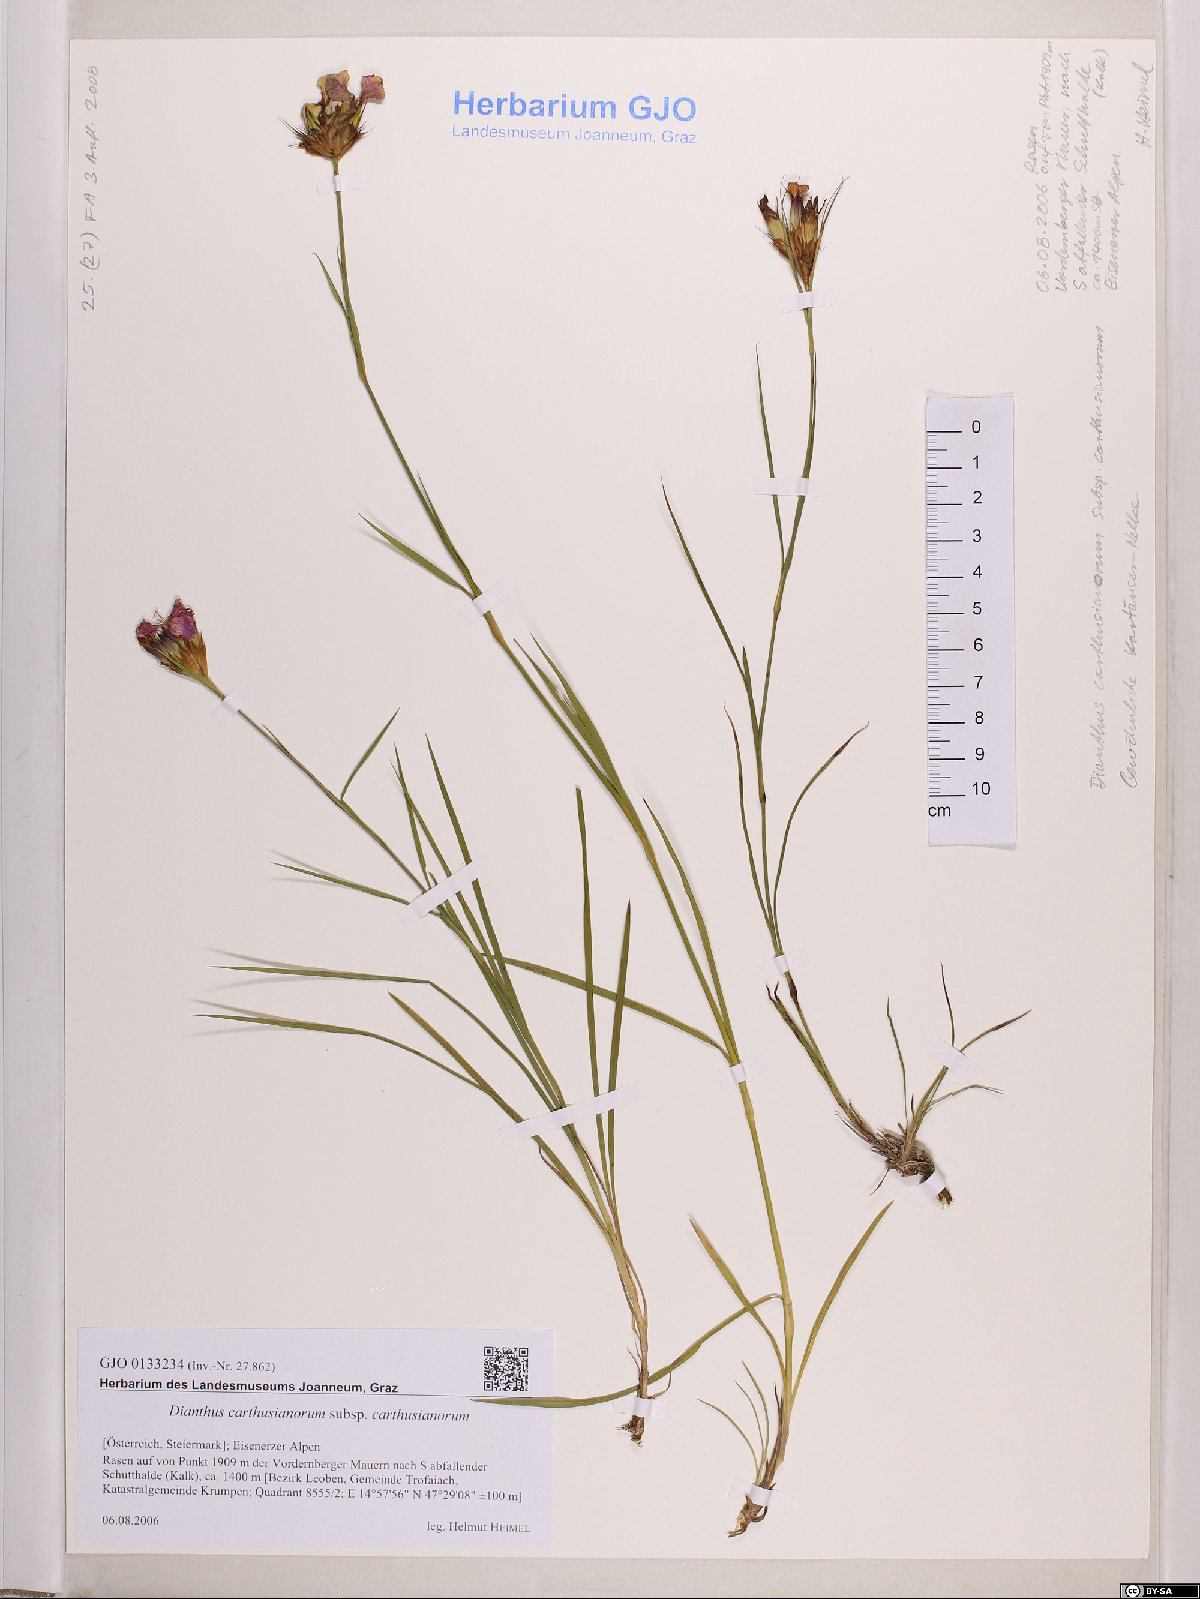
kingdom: Plantae
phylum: Tracheophyta
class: Magnoliopsida
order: Caryophyllales
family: Caryophyllaceae
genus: Dianthus
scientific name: Dianthus carthusianorum
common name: Carthusian pink
